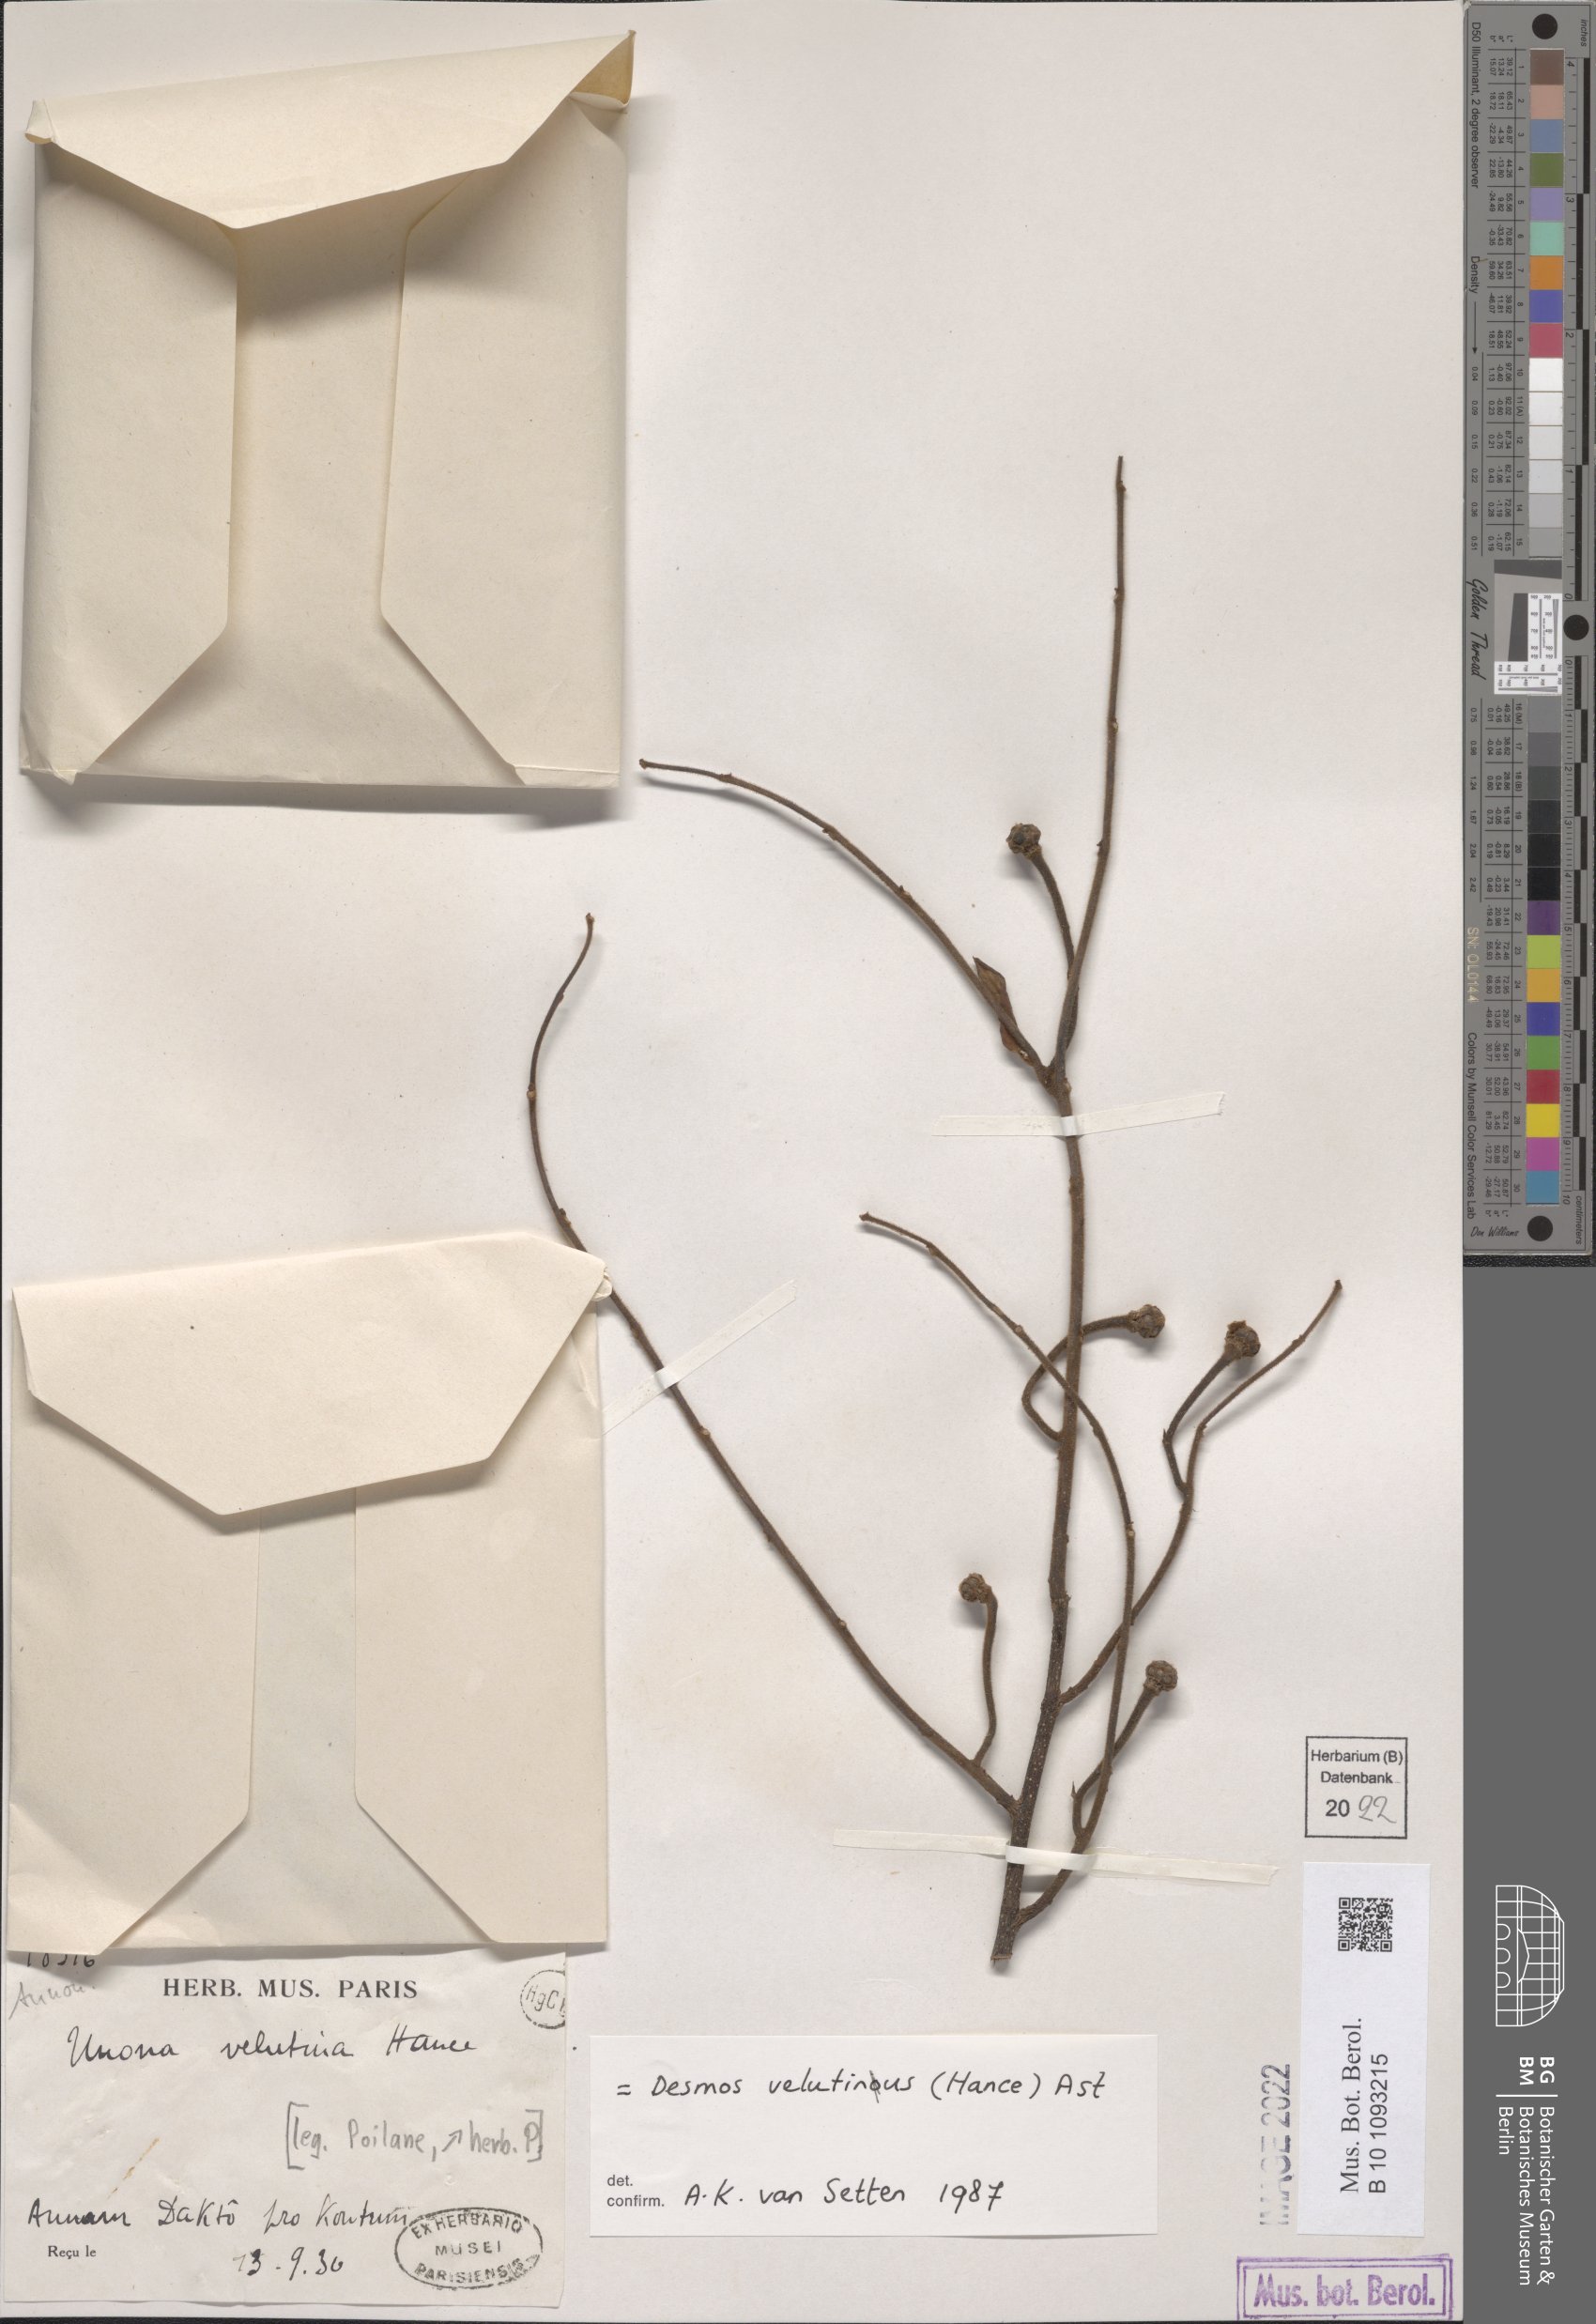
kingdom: Plantae
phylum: Tracheophyta
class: Magnoliopsida
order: Magnoliales
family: Annonaceae
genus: Desmos
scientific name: Desmos cochinchinensis
